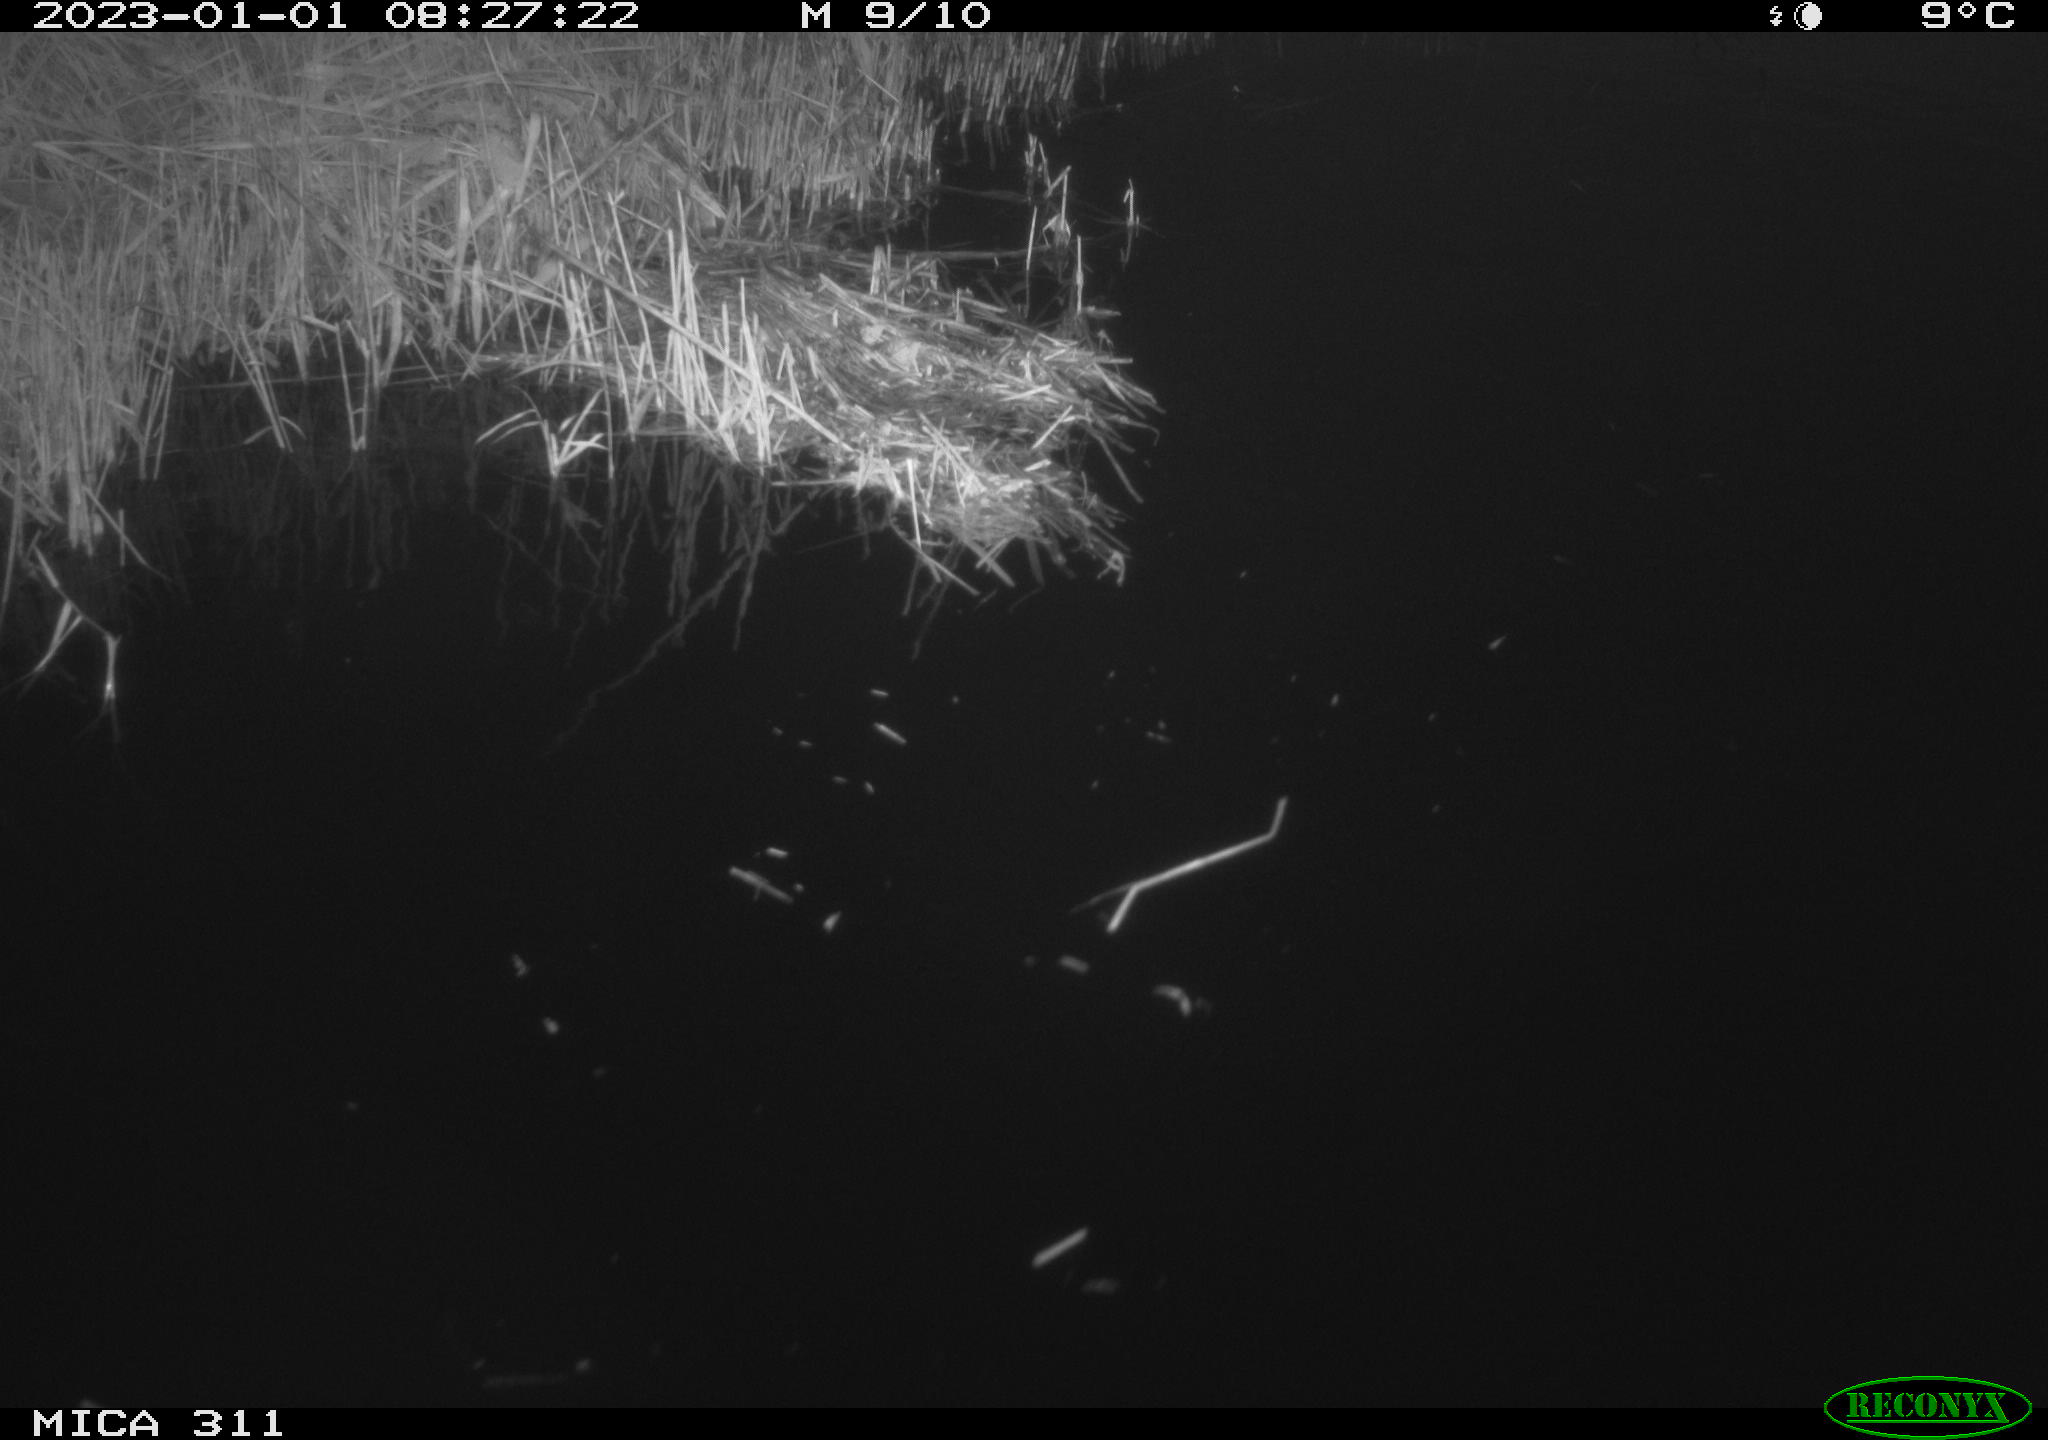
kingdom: Animalia
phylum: Chordata
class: Aves
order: Gruiformes
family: Rallidae
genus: Gallinula
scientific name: Gallinula chloropus
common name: Common moorhen
